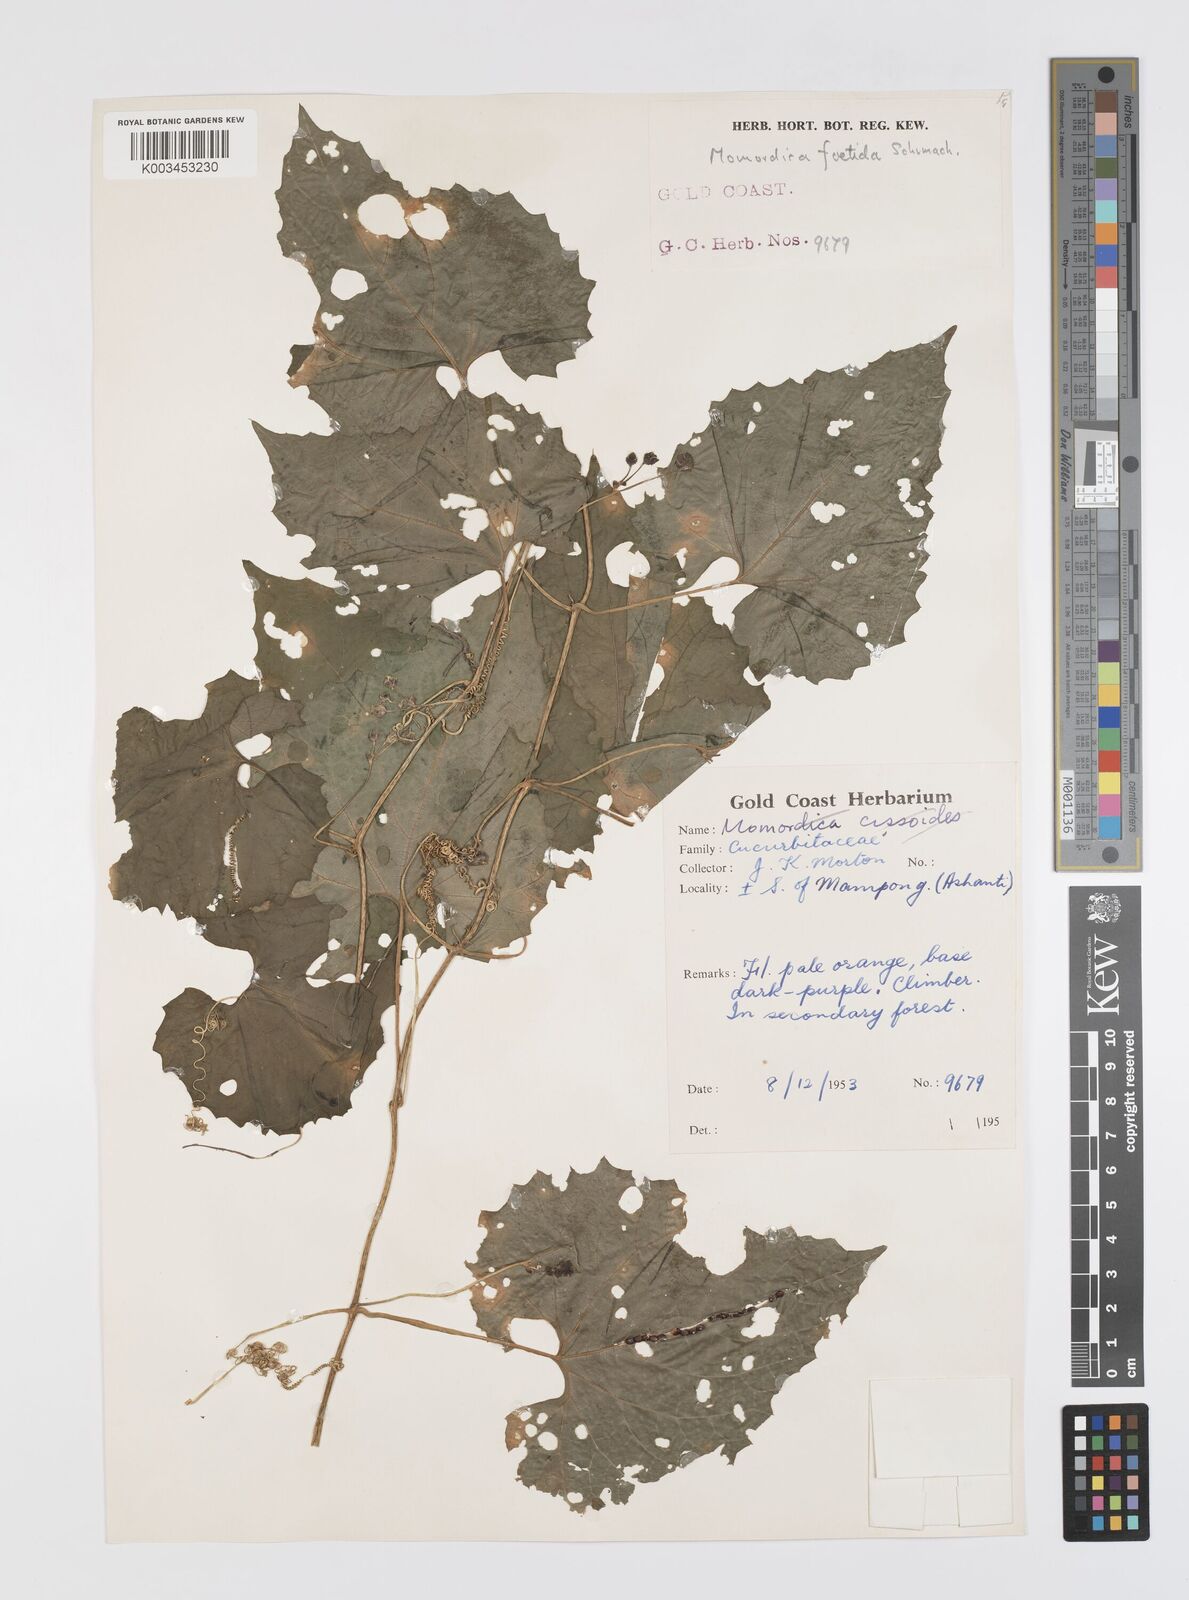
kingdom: Plantae
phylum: Tracheophyta
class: Magnoliopsida
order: Cucurbitales
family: Cucurbitaceae
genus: Momordica
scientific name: Momordica foetida
